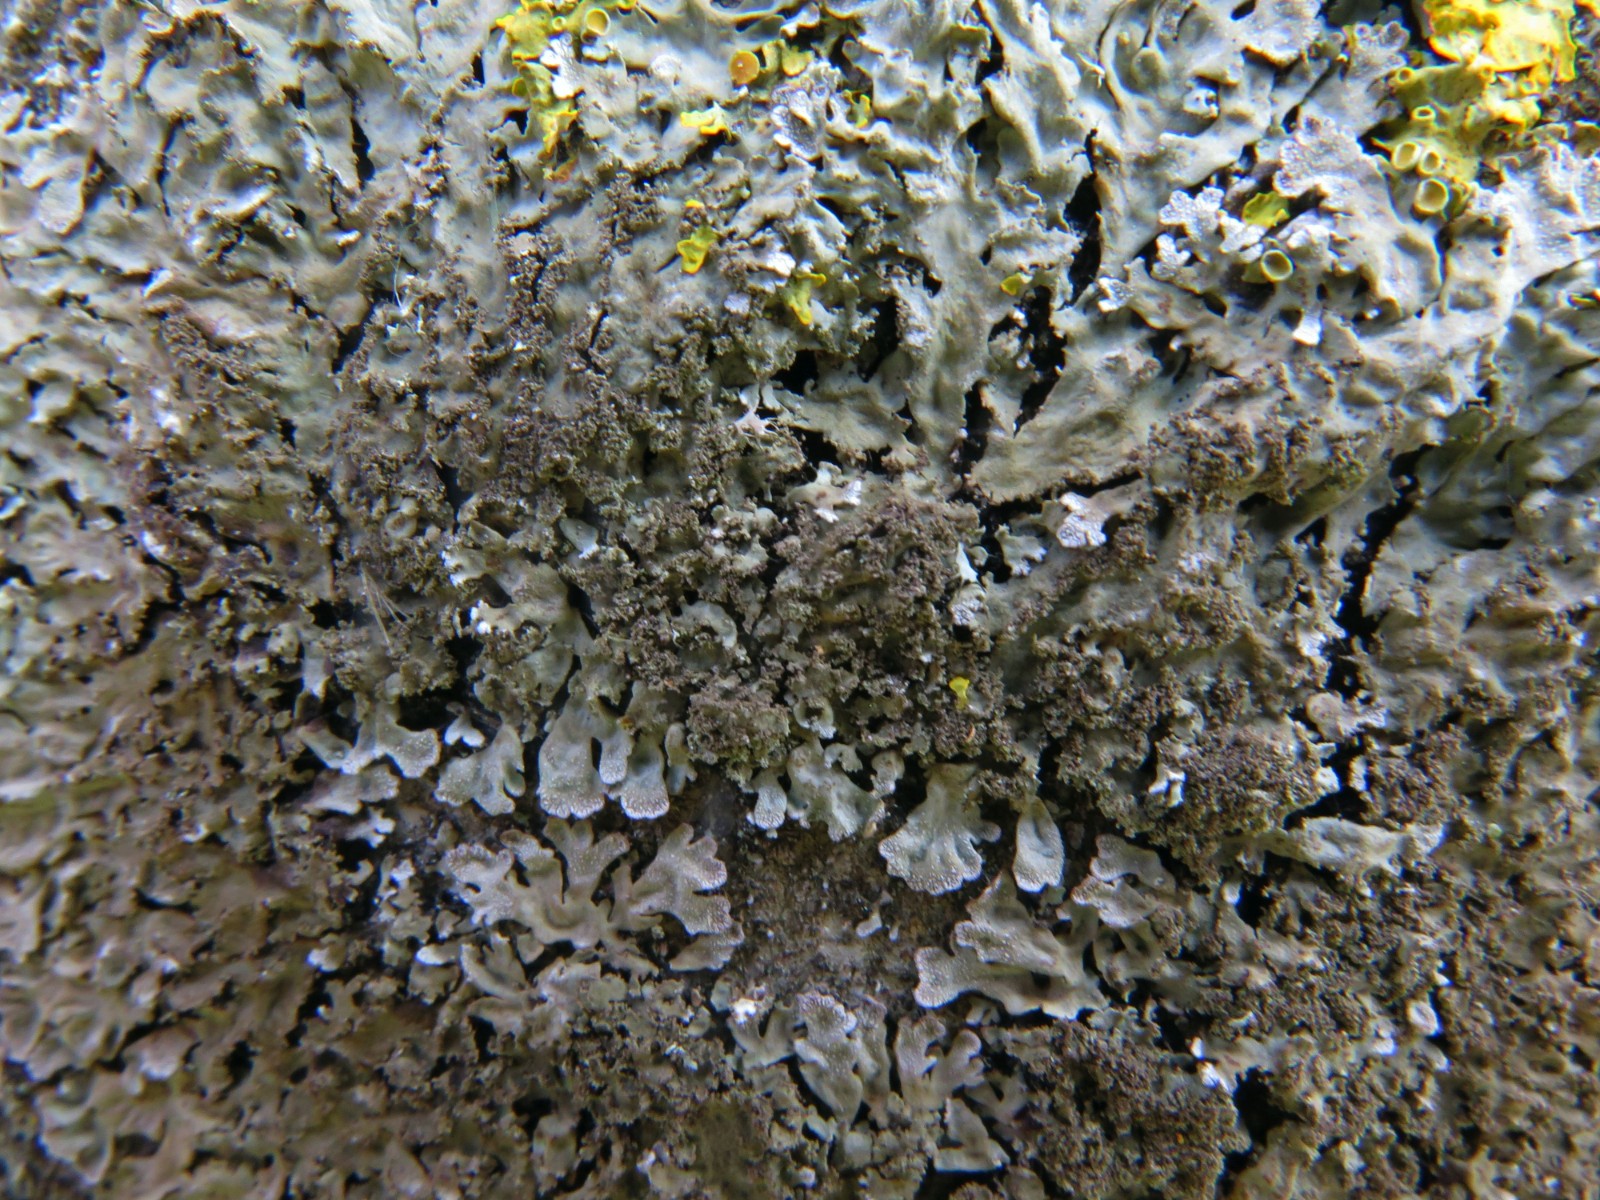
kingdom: Fungi
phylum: Ascomycota
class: Lecanoromycetes
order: Caliciales
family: Physciaceae
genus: Poeltonia
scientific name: Poeltonia grisea
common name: hvidgrå dugrosetlav
